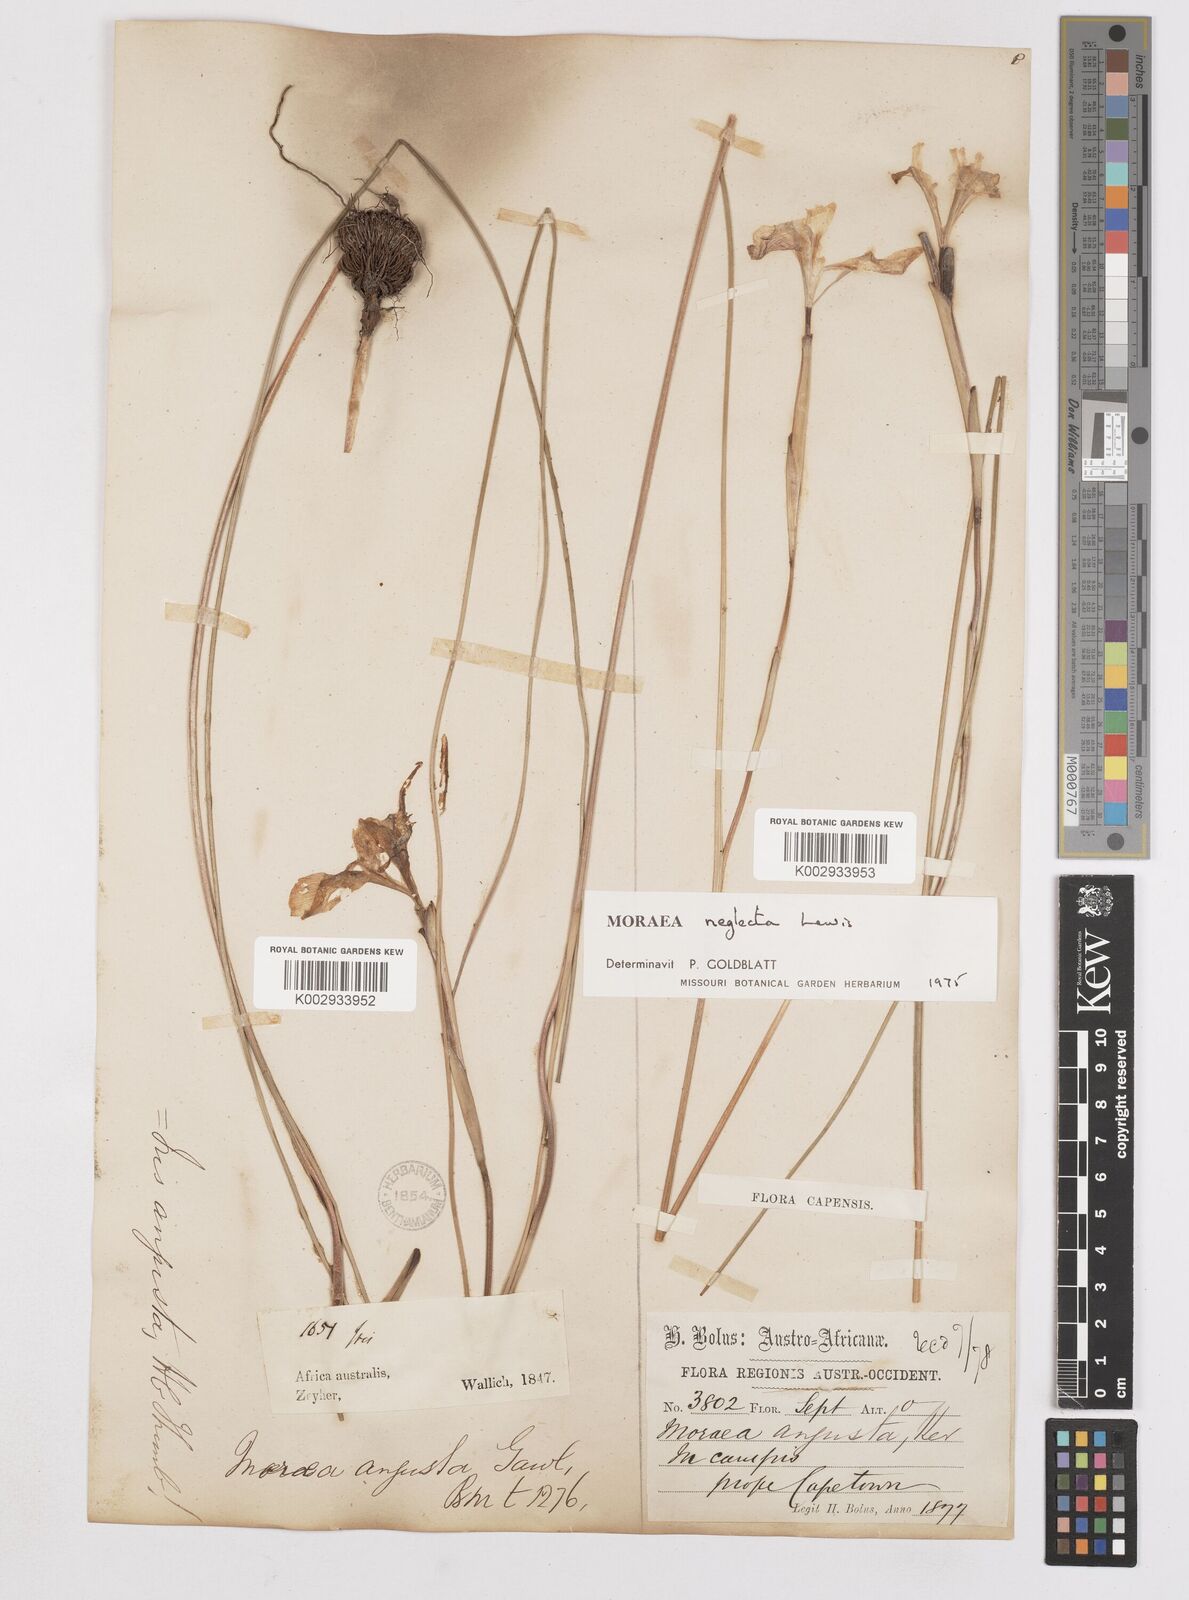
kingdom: Plantae
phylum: Tracheophyta
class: Liliopsida
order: Asparagales
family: Iridaceae
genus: Moraea
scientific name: Moraea neglecta
